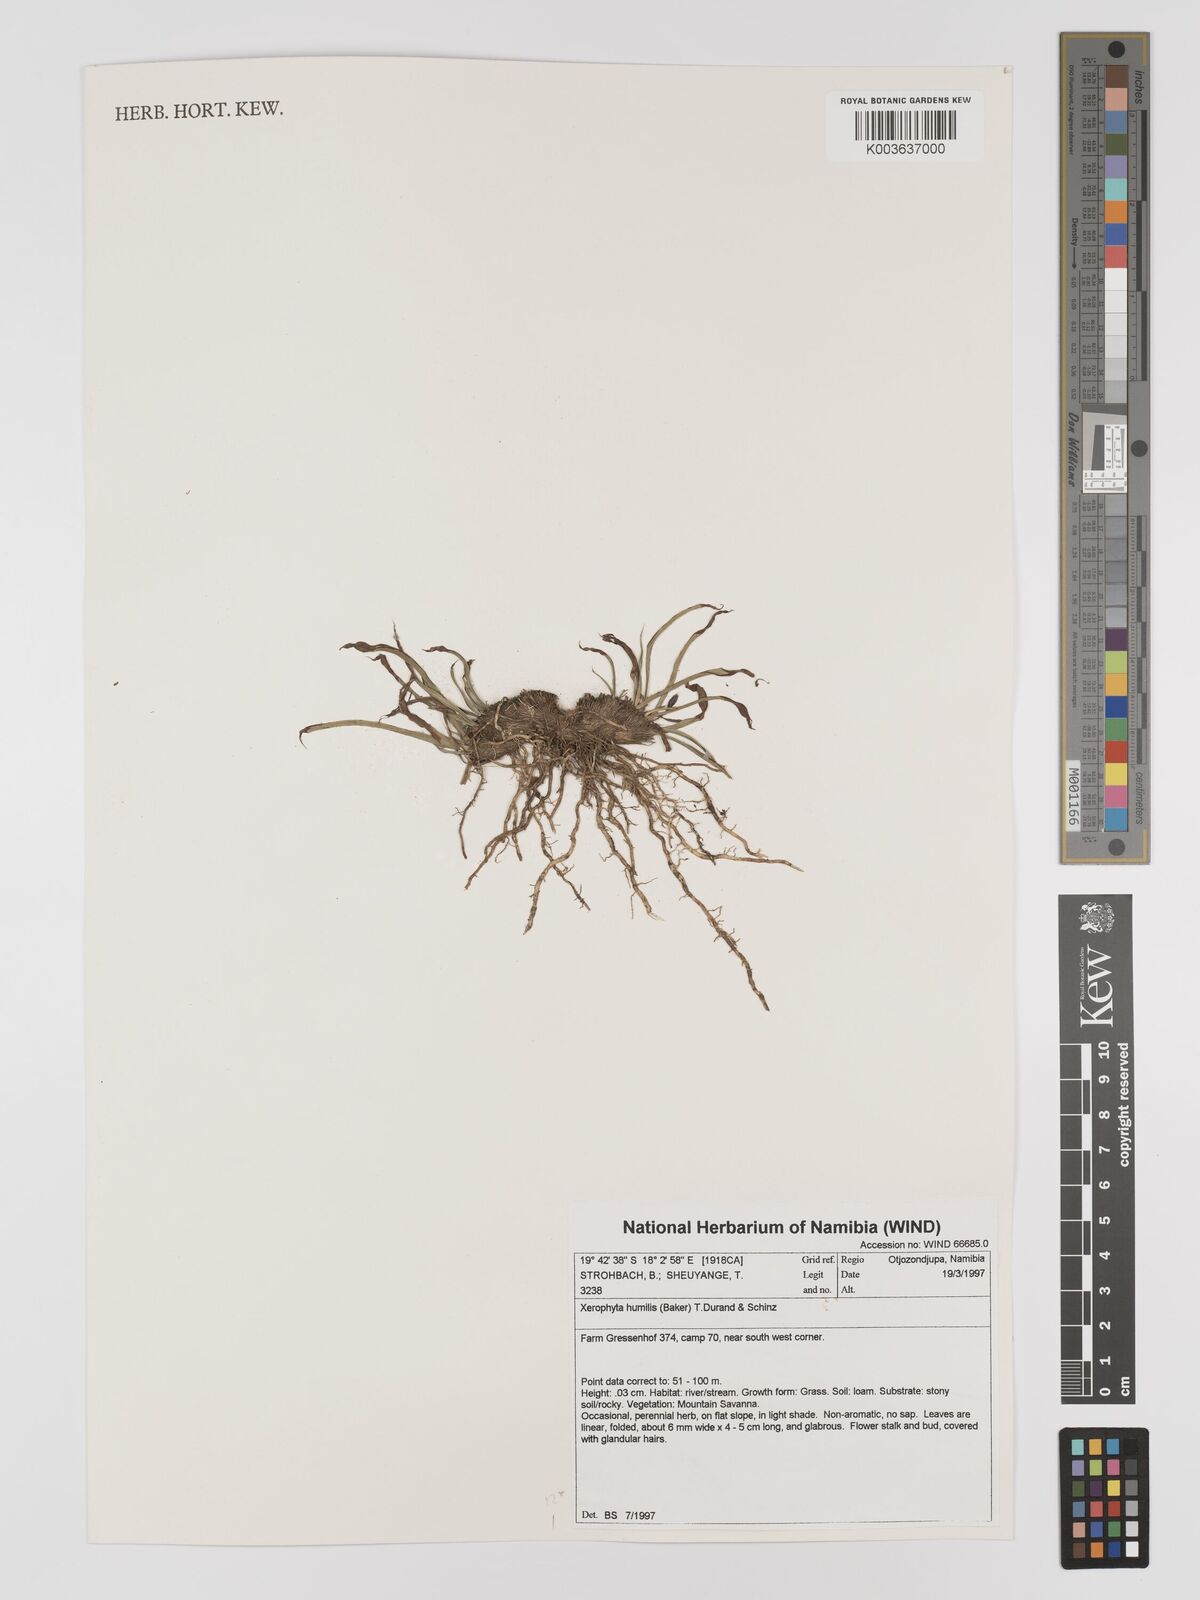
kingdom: Plantae
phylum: Tracheophyta
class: Liliopsida
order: Pandanales
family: Velloziaceae
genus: Xerophyta
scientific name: Xerophyta humilis
